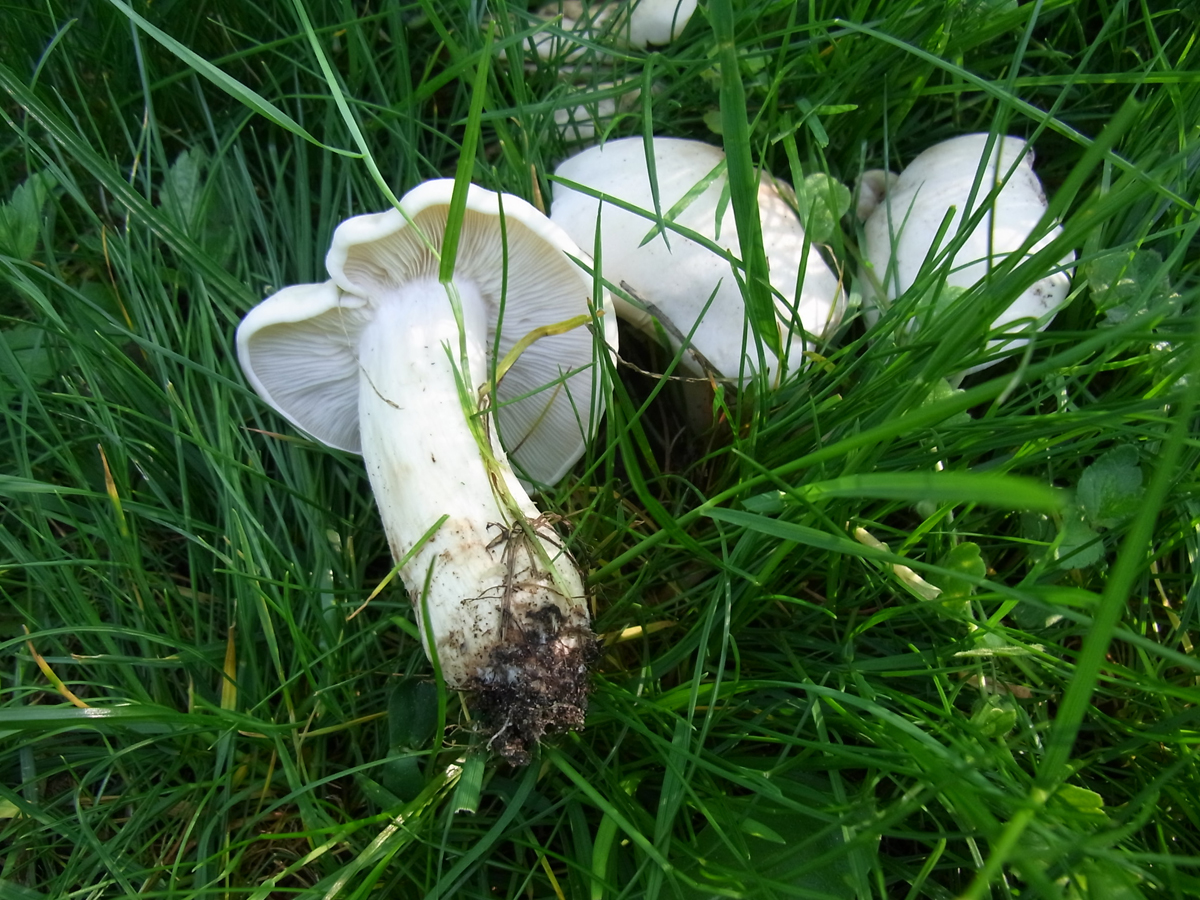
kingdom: Fungi
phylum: Basidiomycota
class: Agaricomycetes
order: Agaricales
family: Lyophyllaceae
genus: Calocybe
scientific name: Calocybe gambosa
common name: St. george's mushroom
